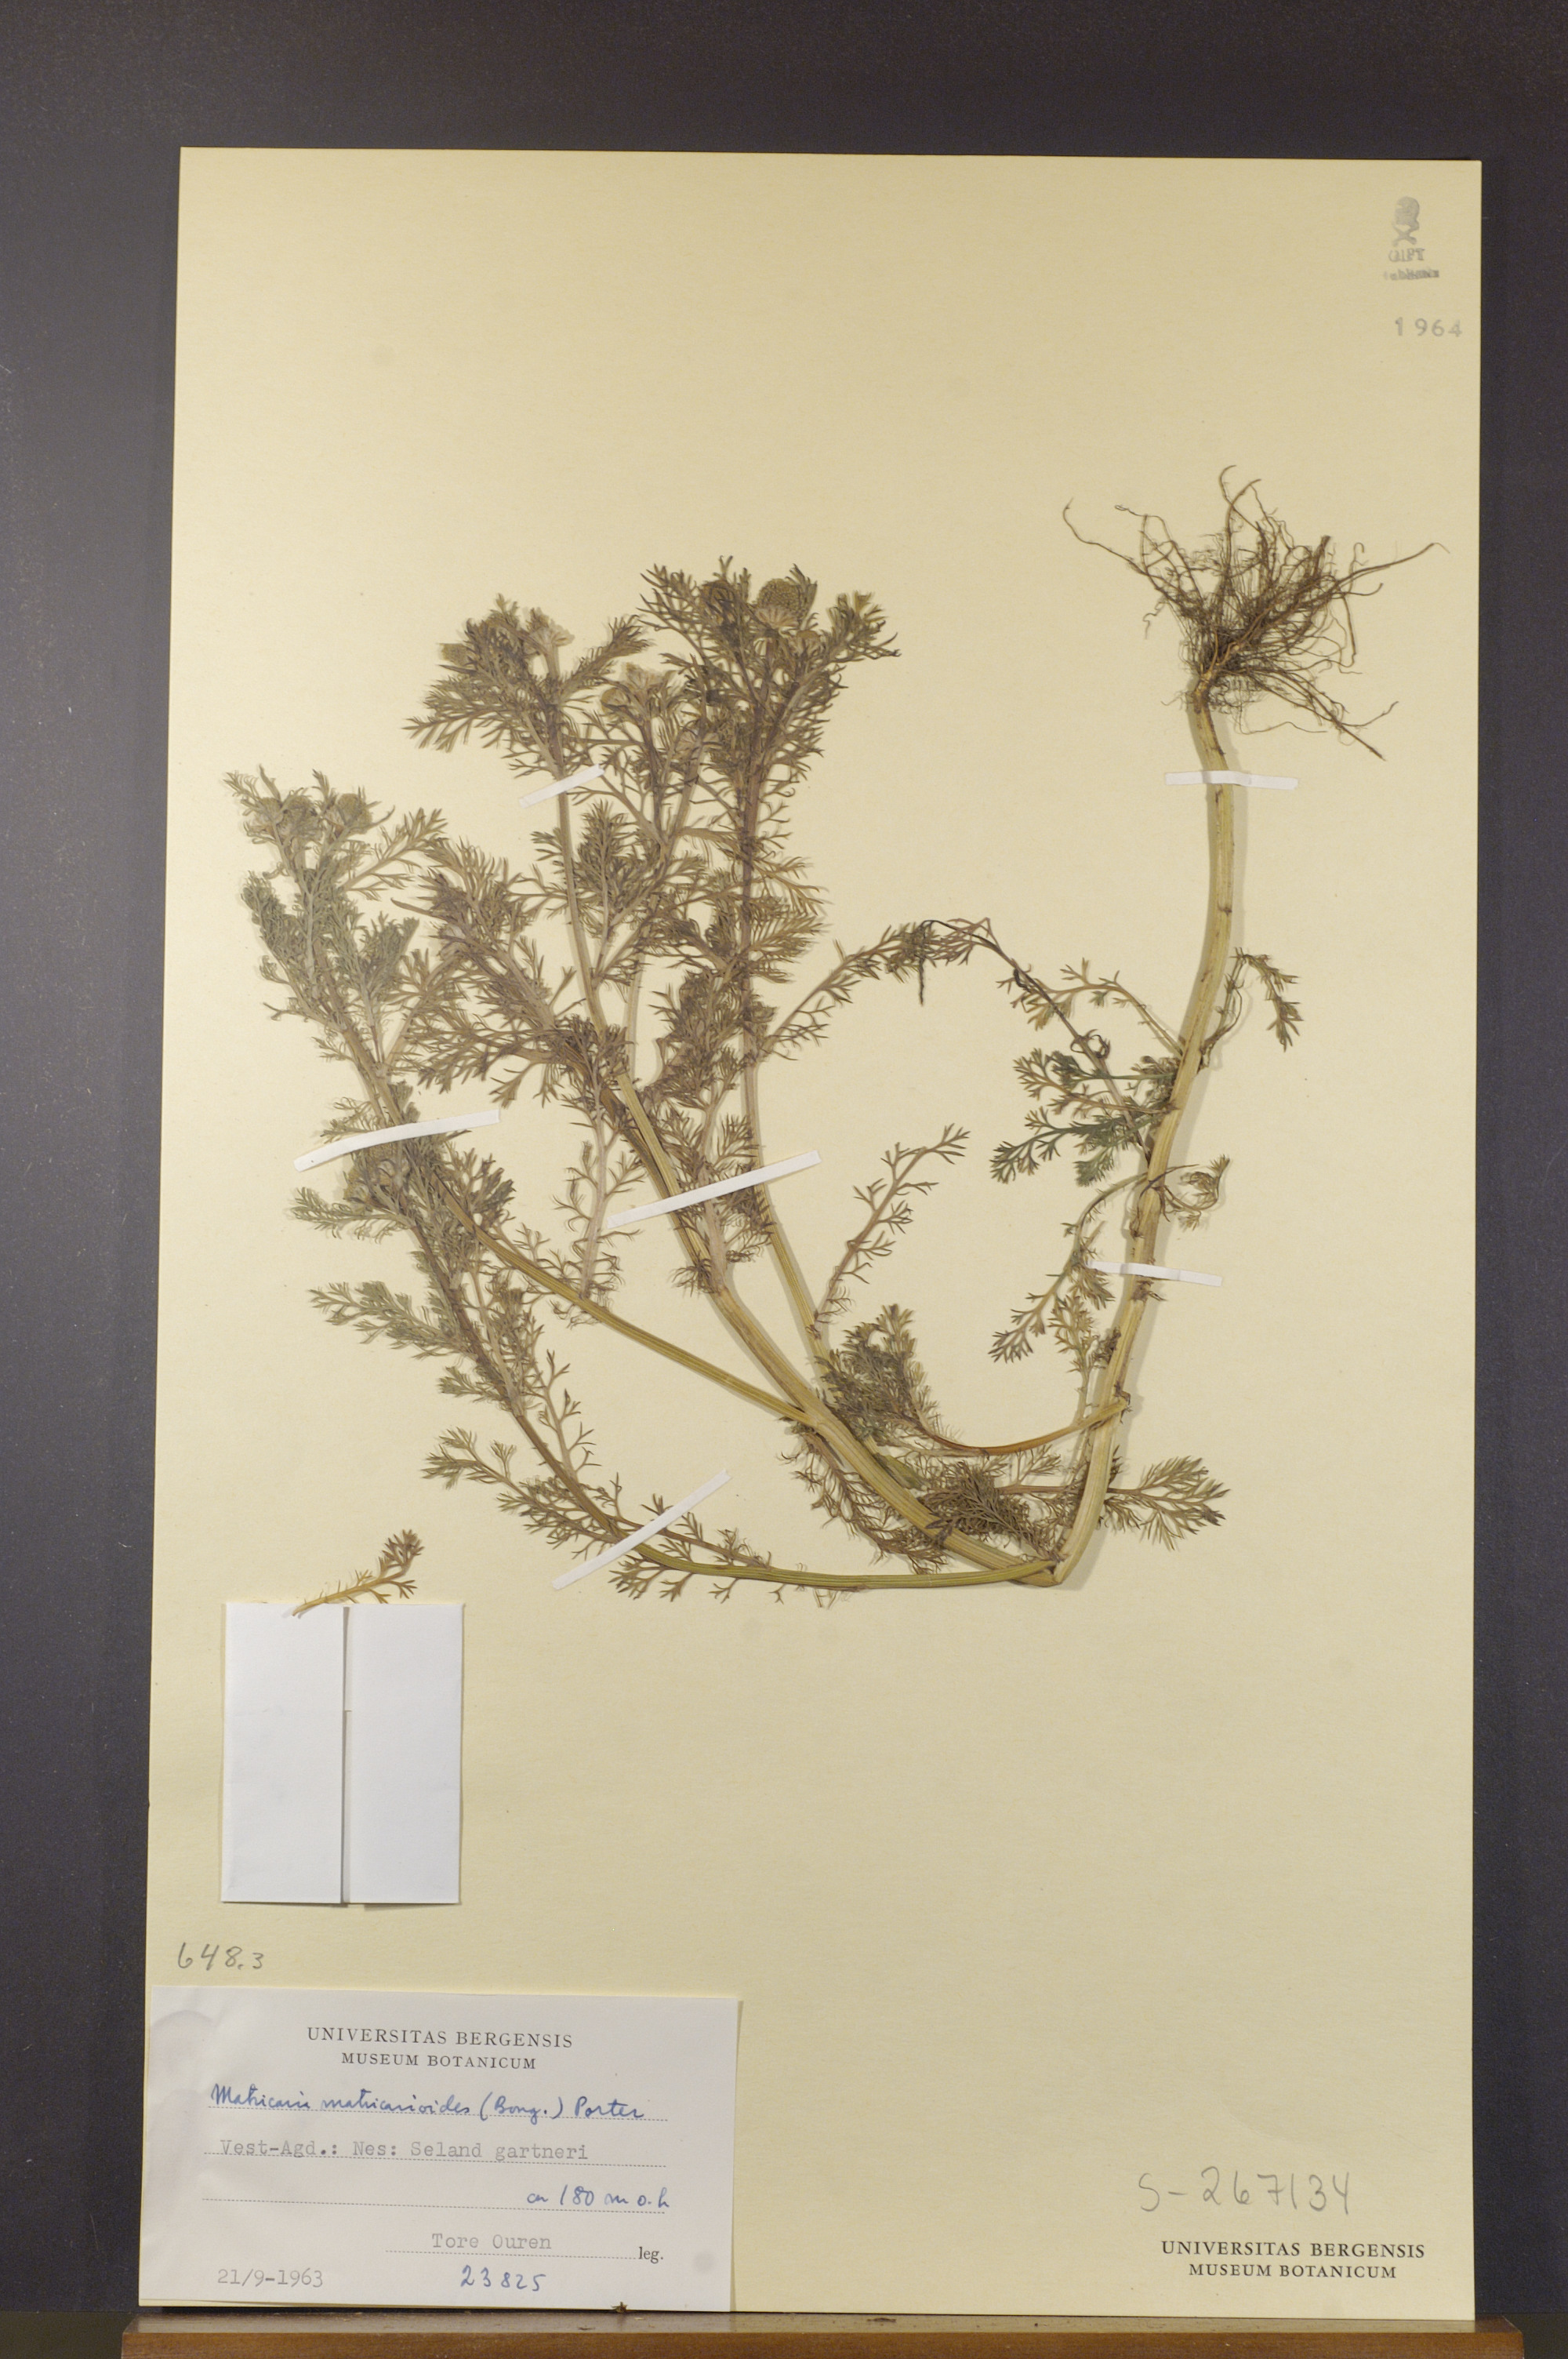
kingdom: Plantae
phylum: Tracheophyta
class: Magnoliopsida
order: Asterales
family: Asteraceae
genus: Matricaria
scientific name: Matricaria discoidea
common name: Disc mayweed
